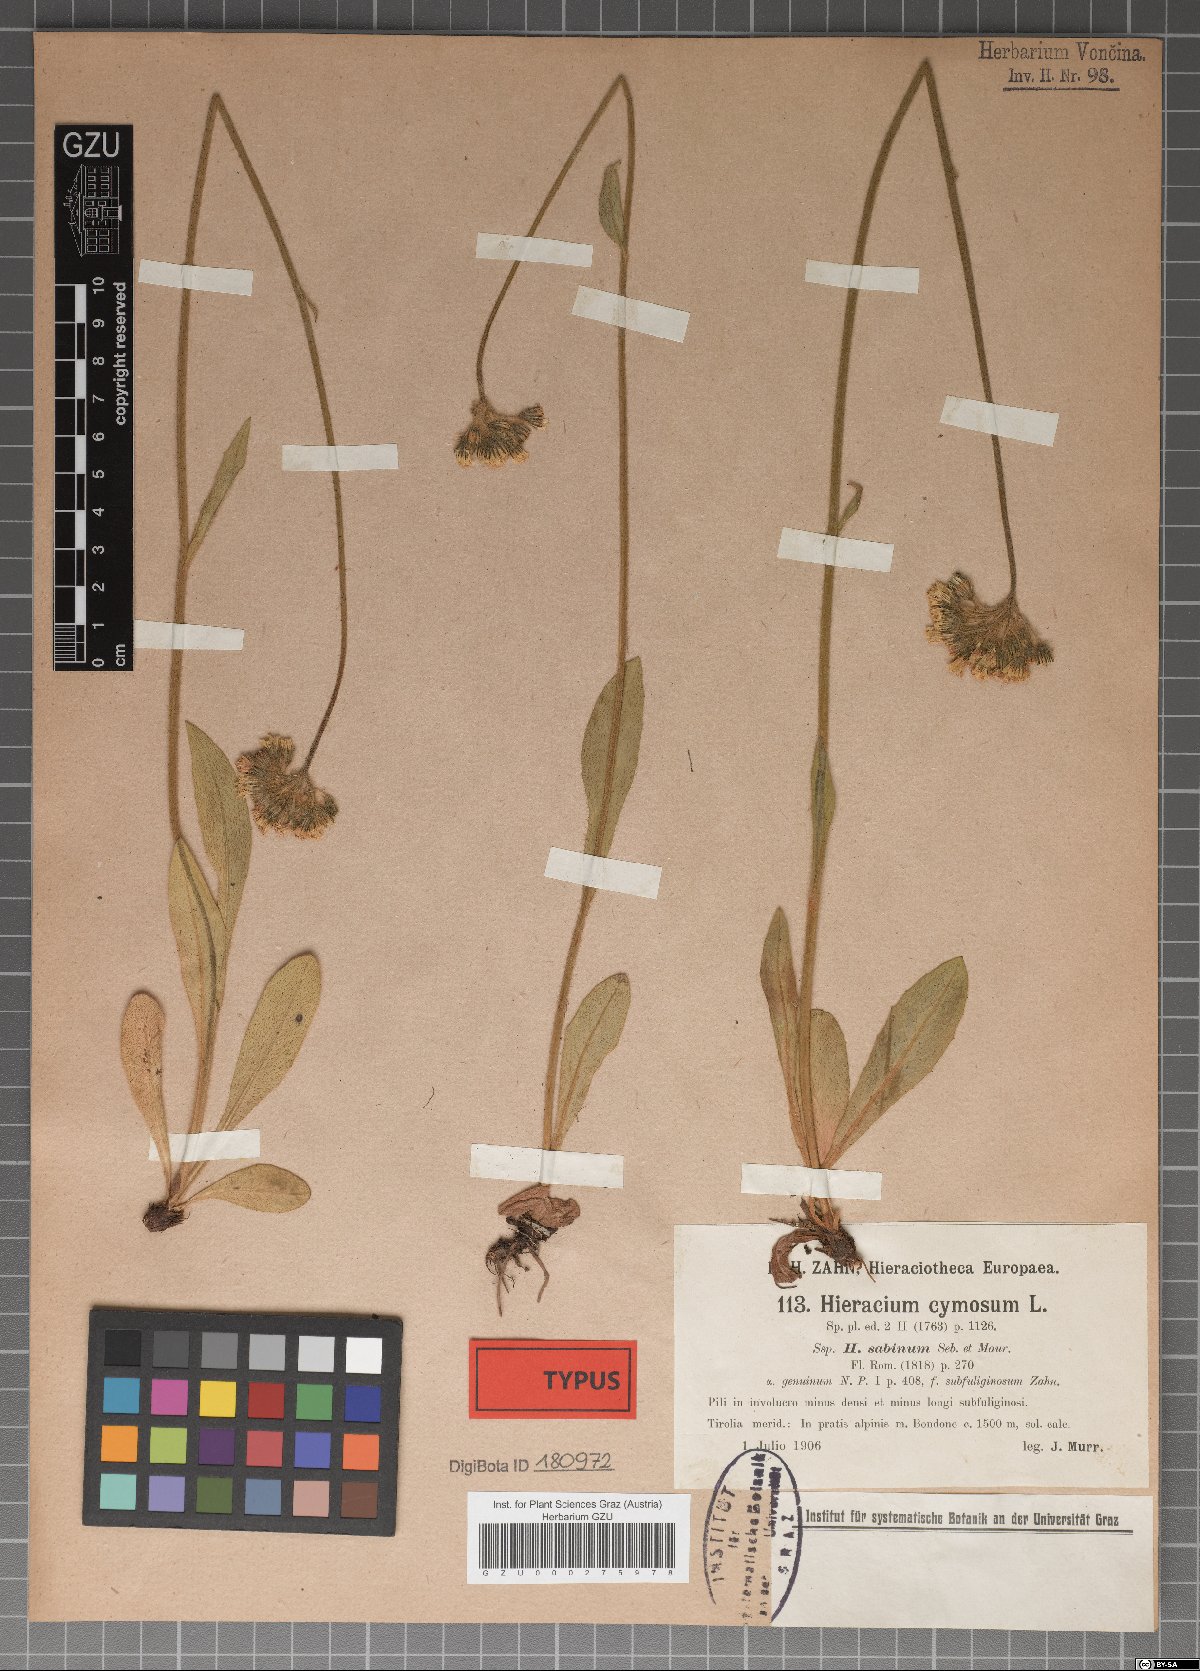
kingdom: Plantae
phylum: Tracheophyta
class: Magnoliopsida
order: Asterales
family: Asteraceae
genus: Hieracium
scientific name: Hieracium cymosum
